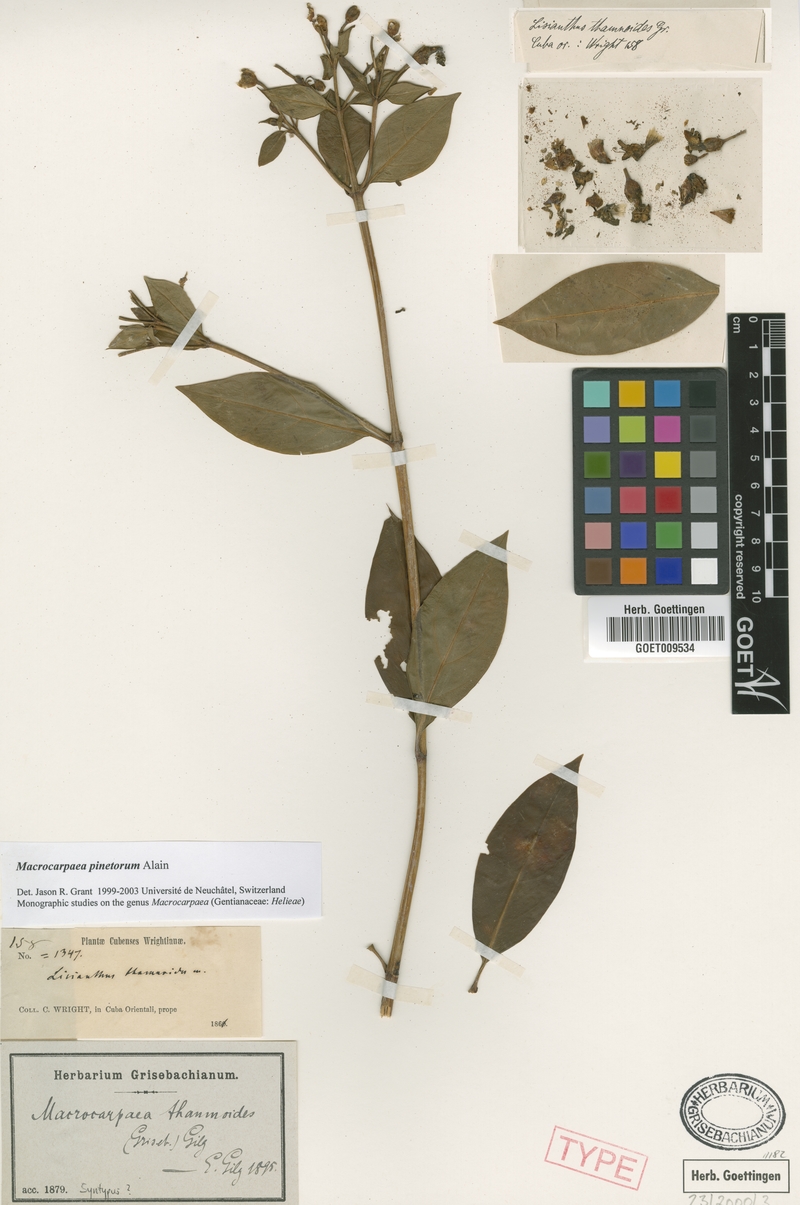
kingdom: Plantae
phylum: Tracheophyta
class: Magnoliopsida
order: Gentianales
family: Gentianaceae
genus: Macrocarpaea
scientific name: Macrocarpaea pinetorum
